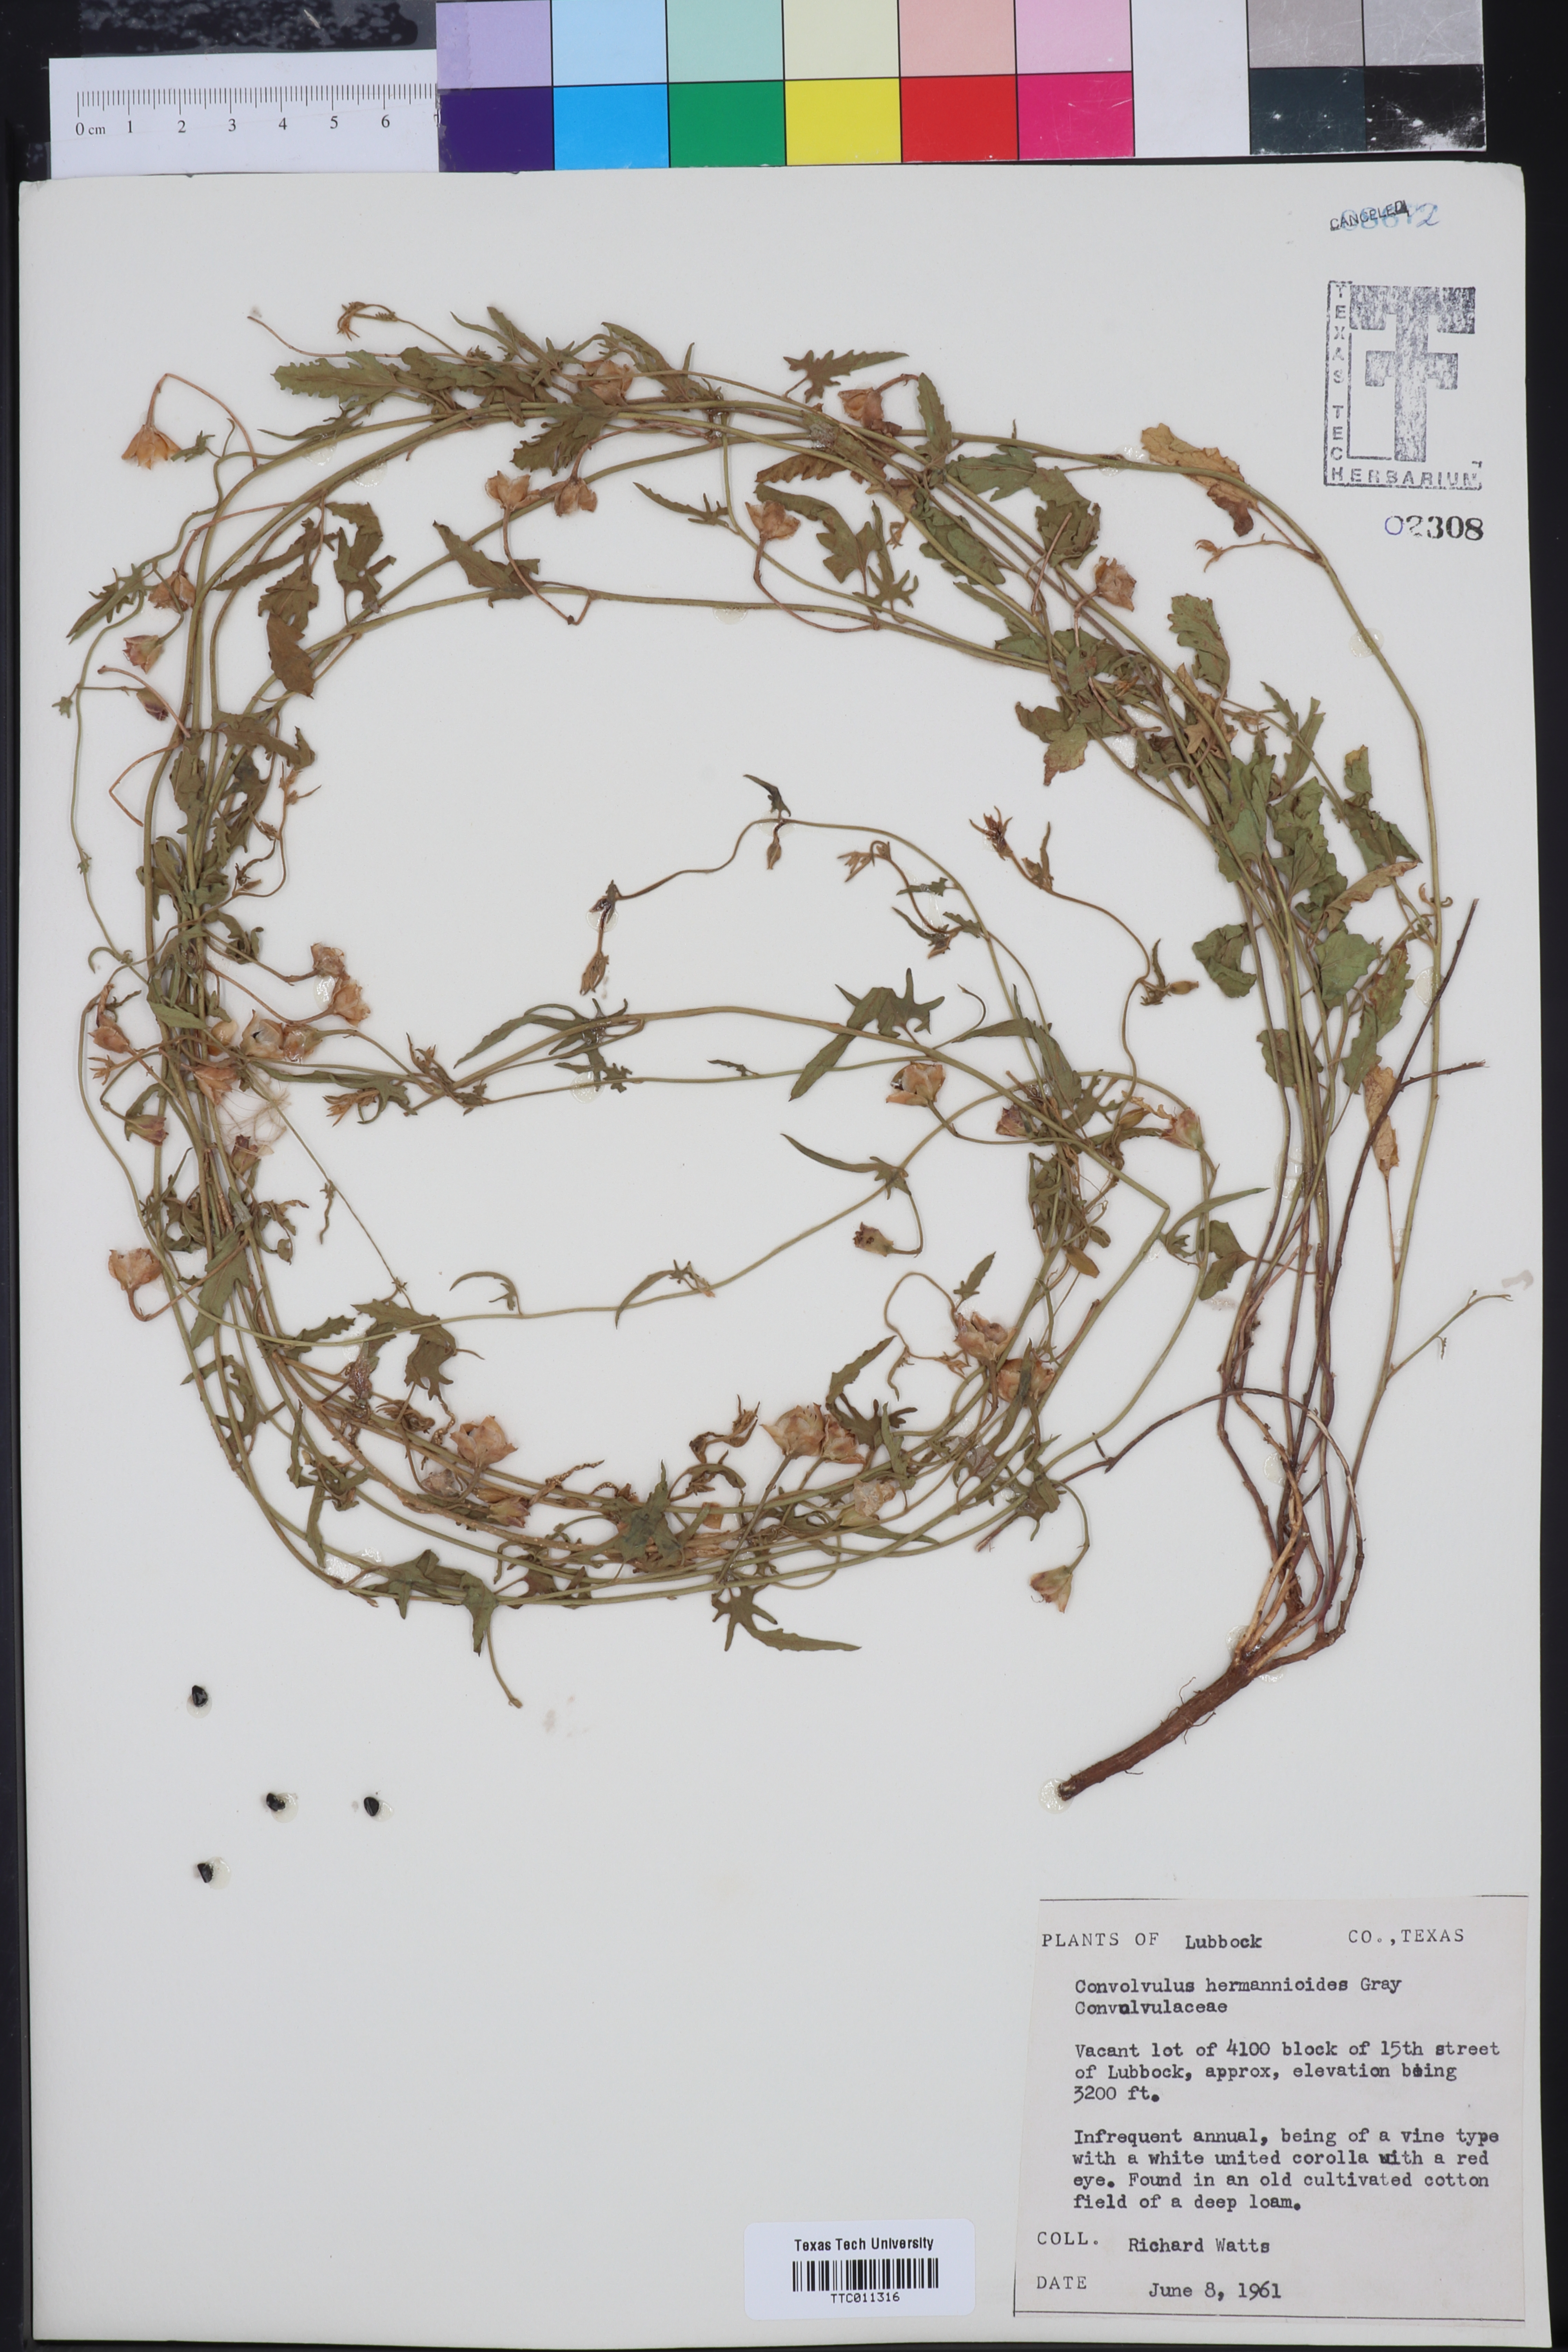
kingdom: Plantae
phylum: Tracheophyta
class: Magnoliopsida
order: Solanales
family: Convolvulaceae
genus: Convolvulus
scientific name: Convolvulus equitans
